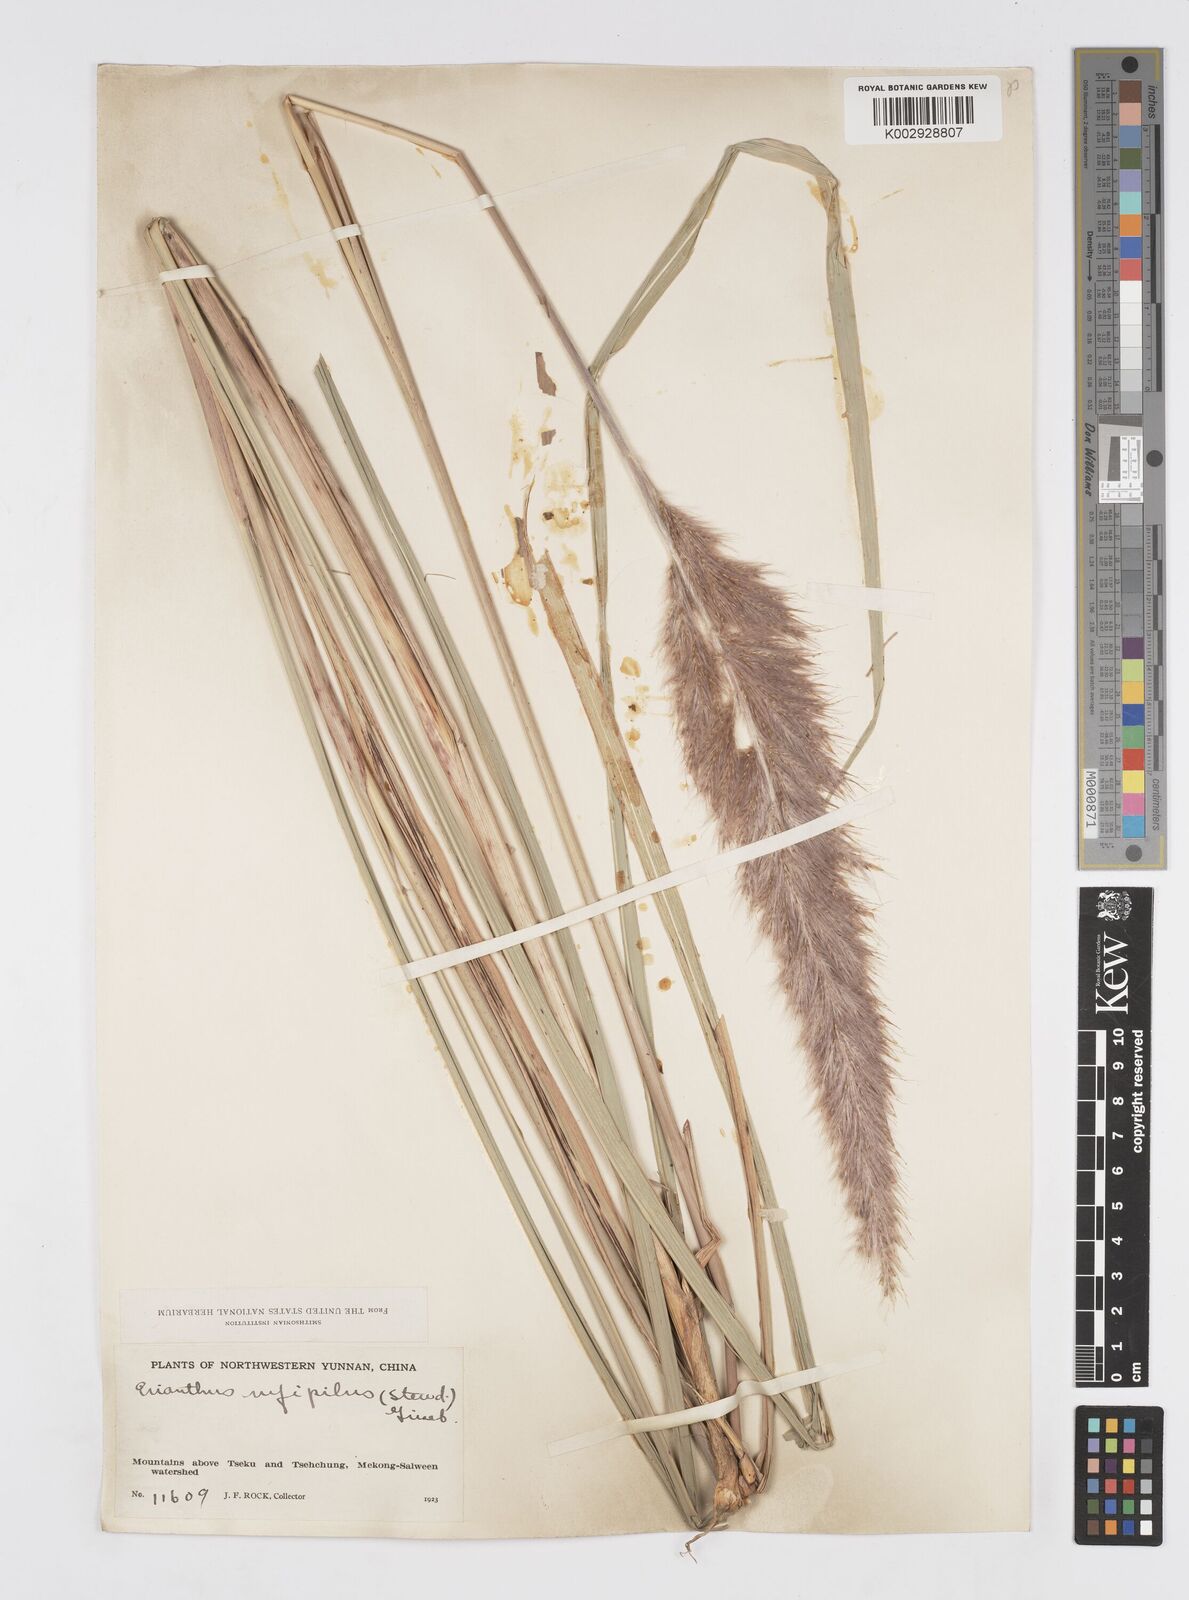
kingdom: Plantae
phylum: Tracheophyta
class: Liliopsida
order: Poales
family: Poaceae
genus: Tripidium
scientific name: Tripidium rufipilum
